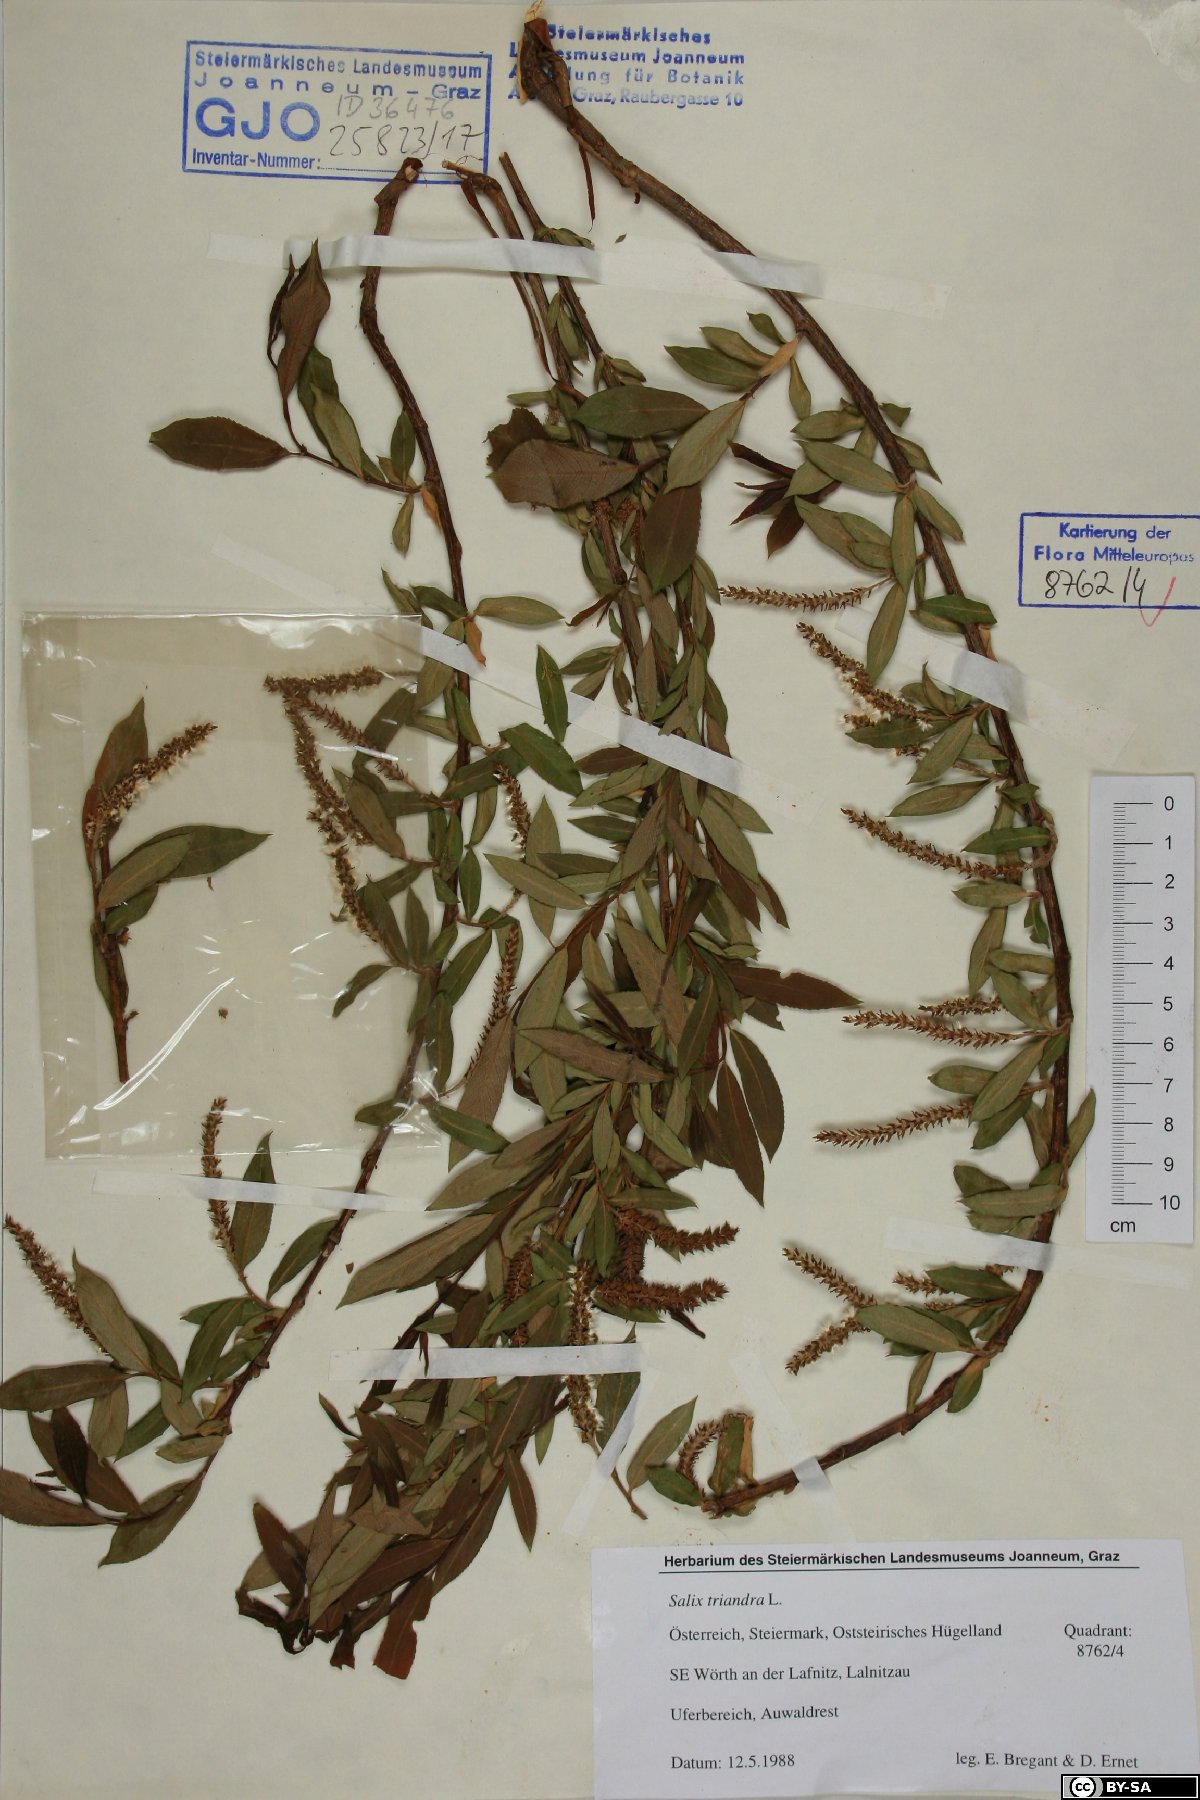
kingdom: Plantae
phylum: Tracheophyta
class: Magnoliopsida
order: Malpighiales
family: Salicaceae
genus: Salix
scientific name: Salix triandra
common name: Almond willow
